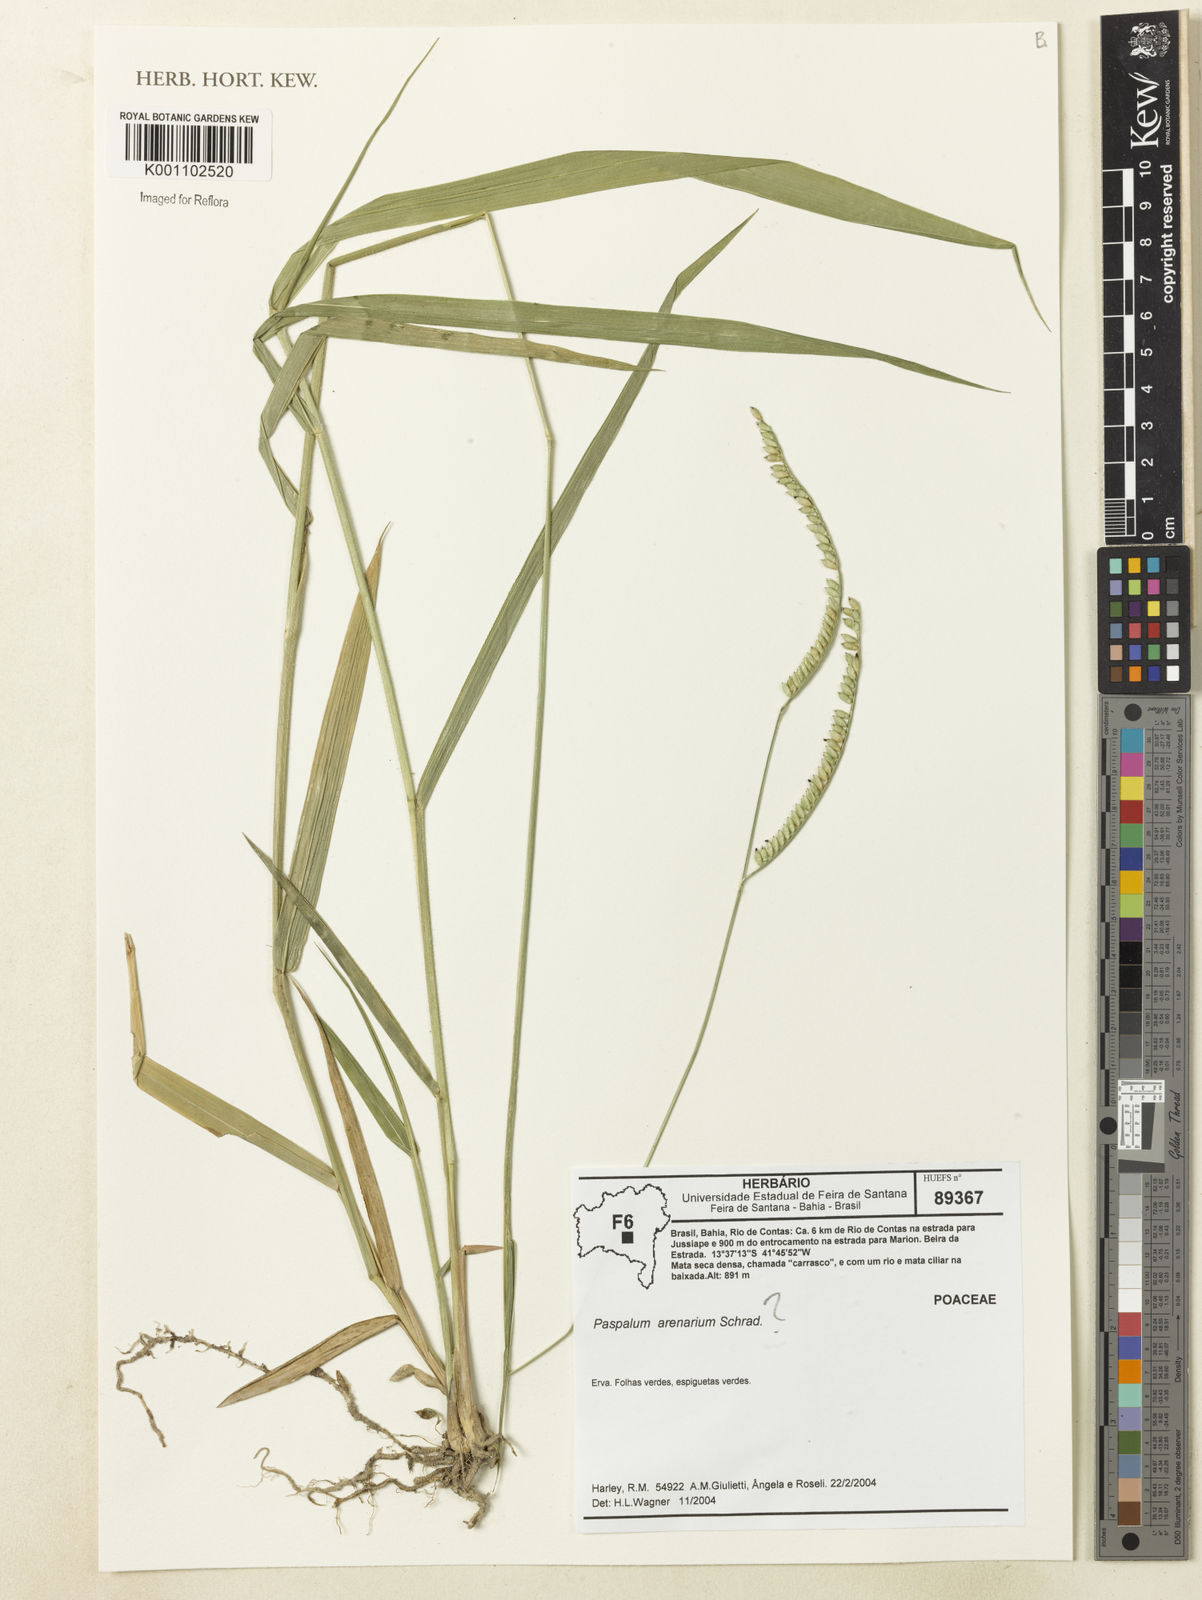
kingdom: Plantae
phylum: Tracheophyta
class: Liliopsida
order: Poales
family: Poaceae
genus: Paspalum
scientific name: Paspalum arenarium
